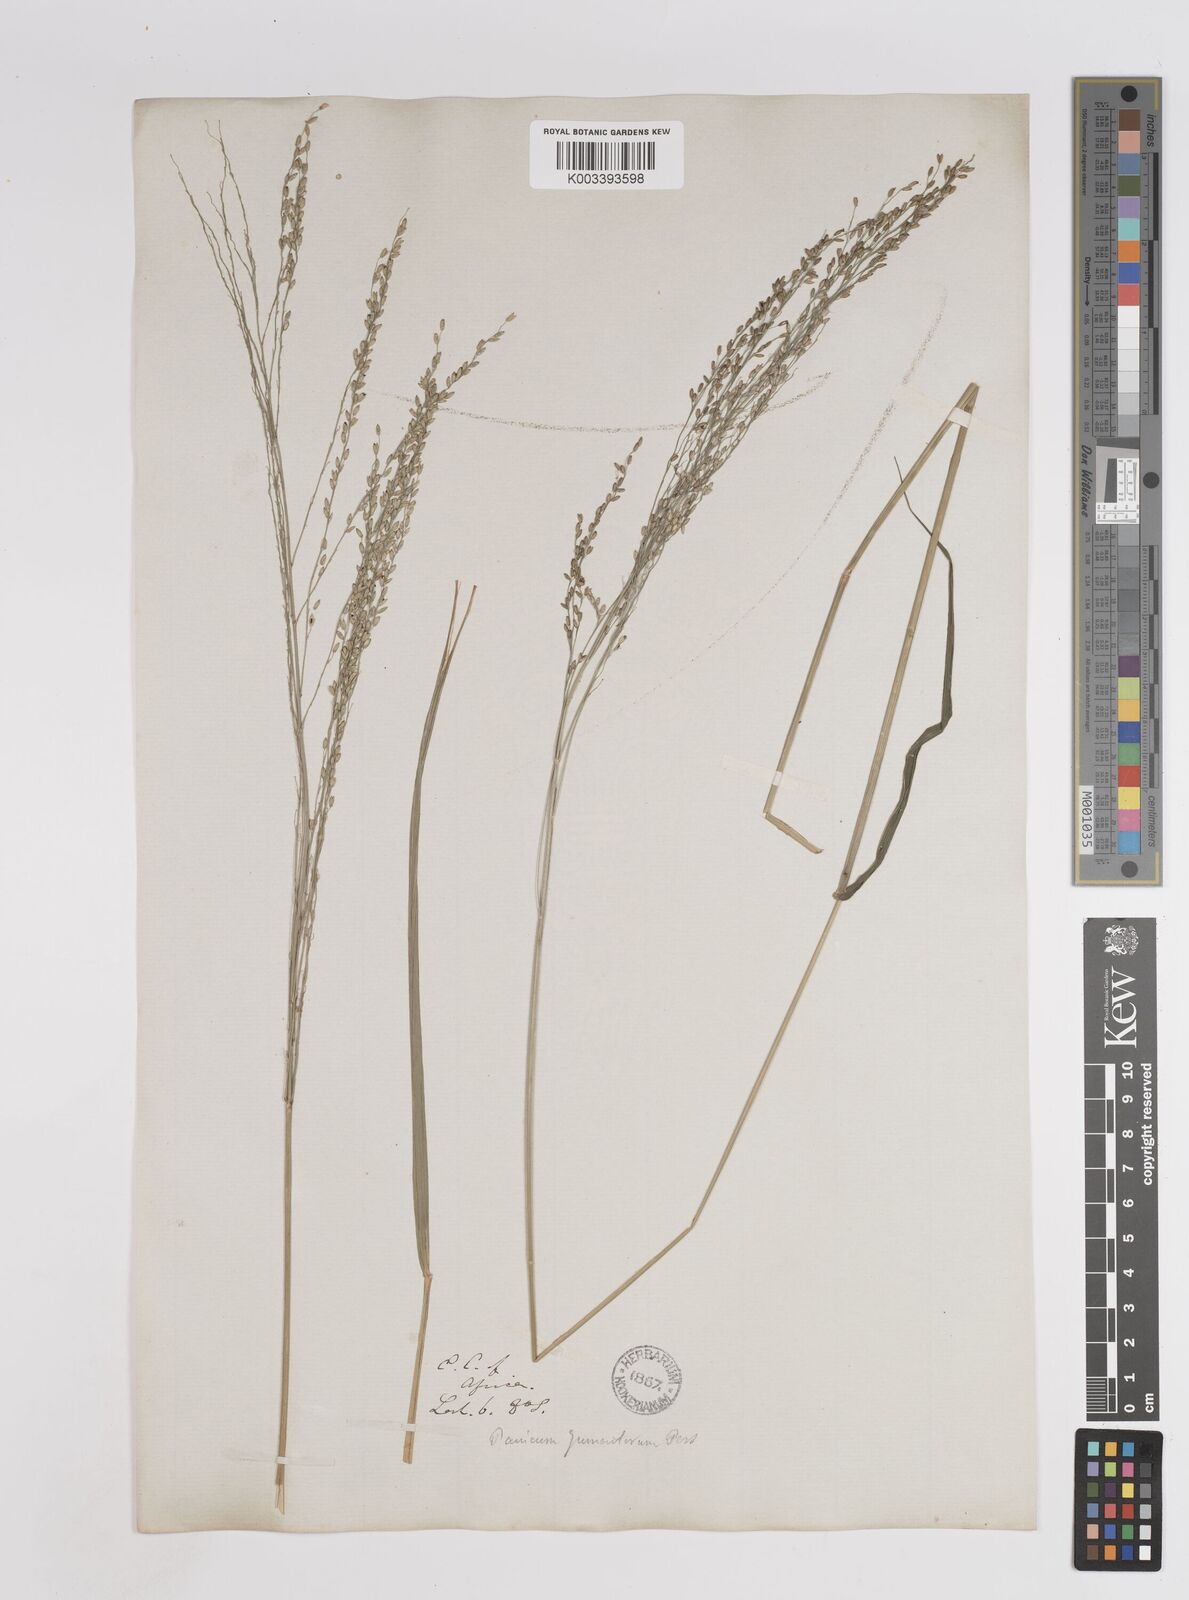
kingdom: Plantae
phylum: Tracheophyta
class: Liliopsida
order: Poales
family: Poaceae
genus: Megathyrsus
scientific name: Megathyrsus maximus
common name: Guineagrass
